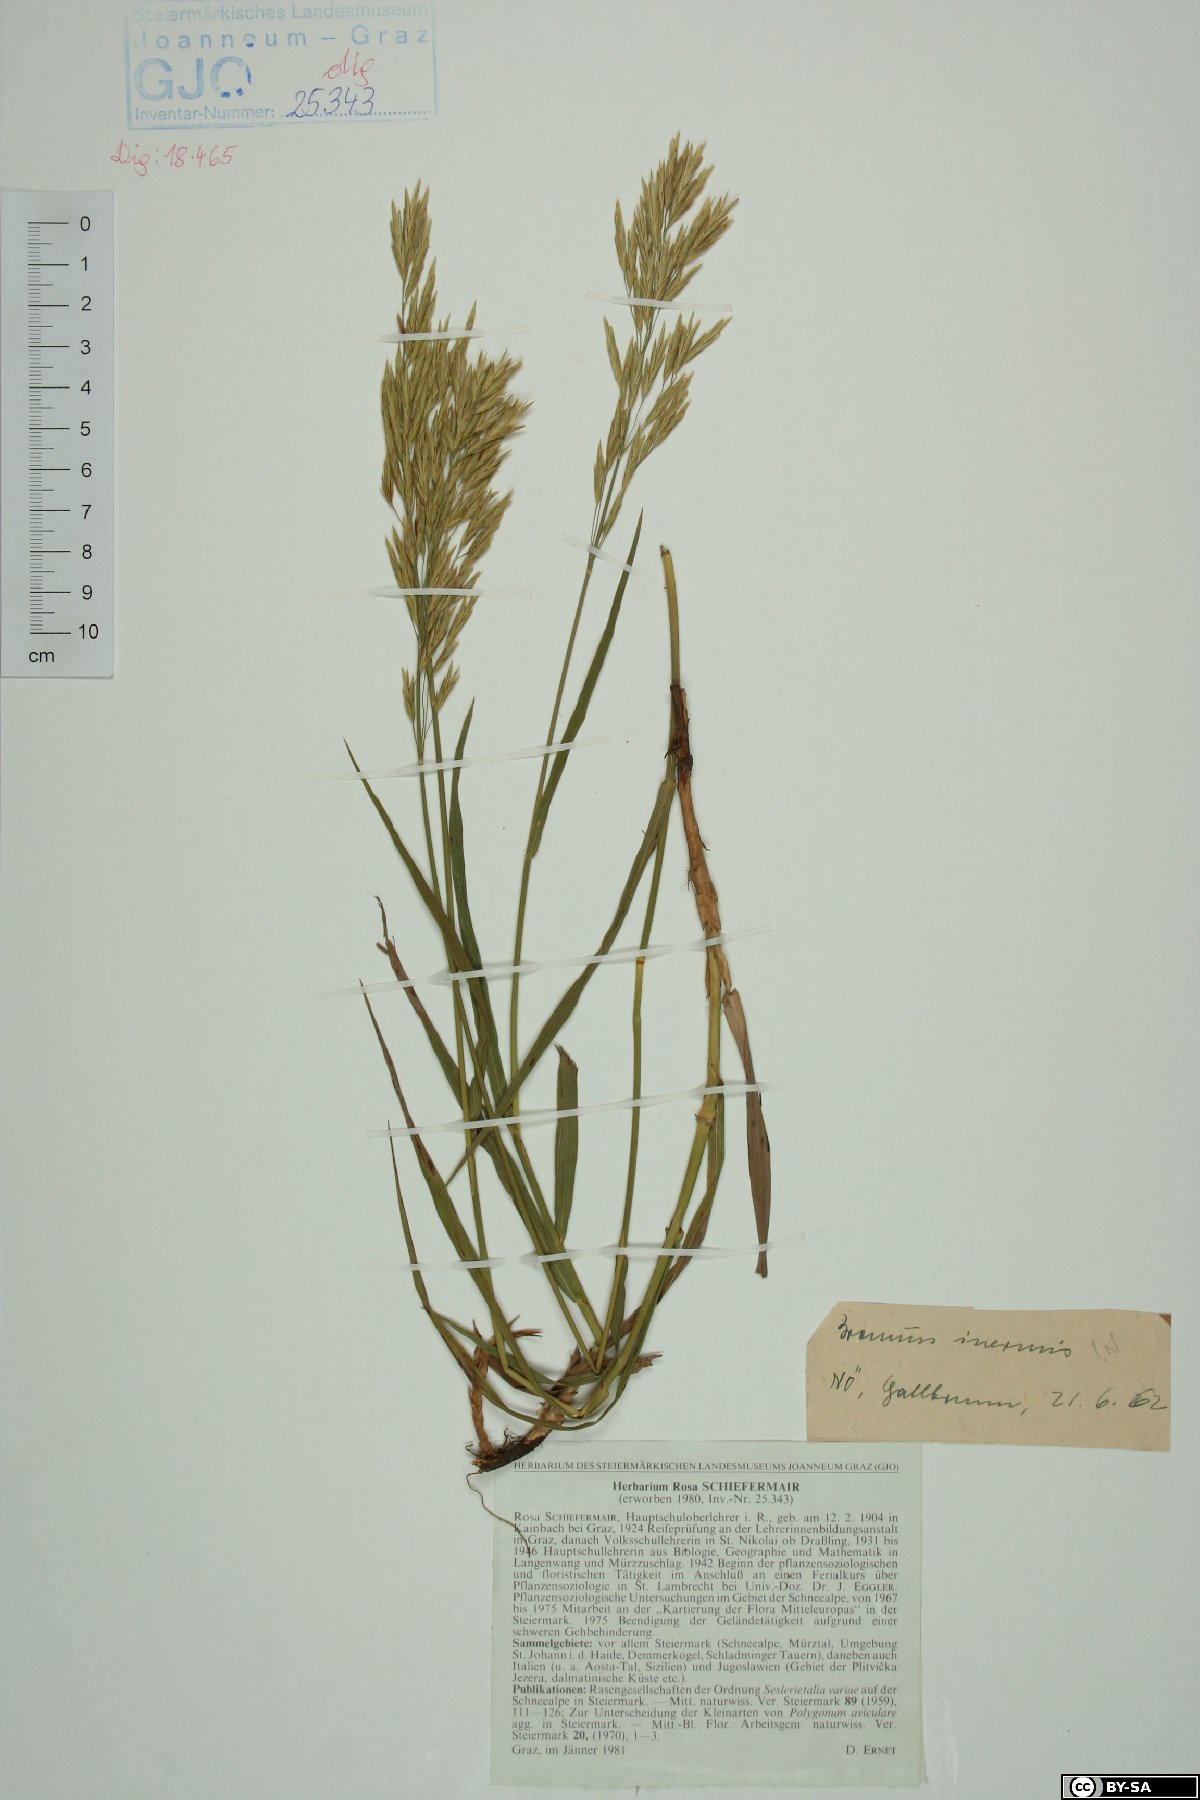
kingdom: Plantae
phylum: Tracheophyta
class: Liliopsida
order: Poales
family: Poaceae
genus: Bromus
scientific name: Bromus inermis
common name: Smooth brome
